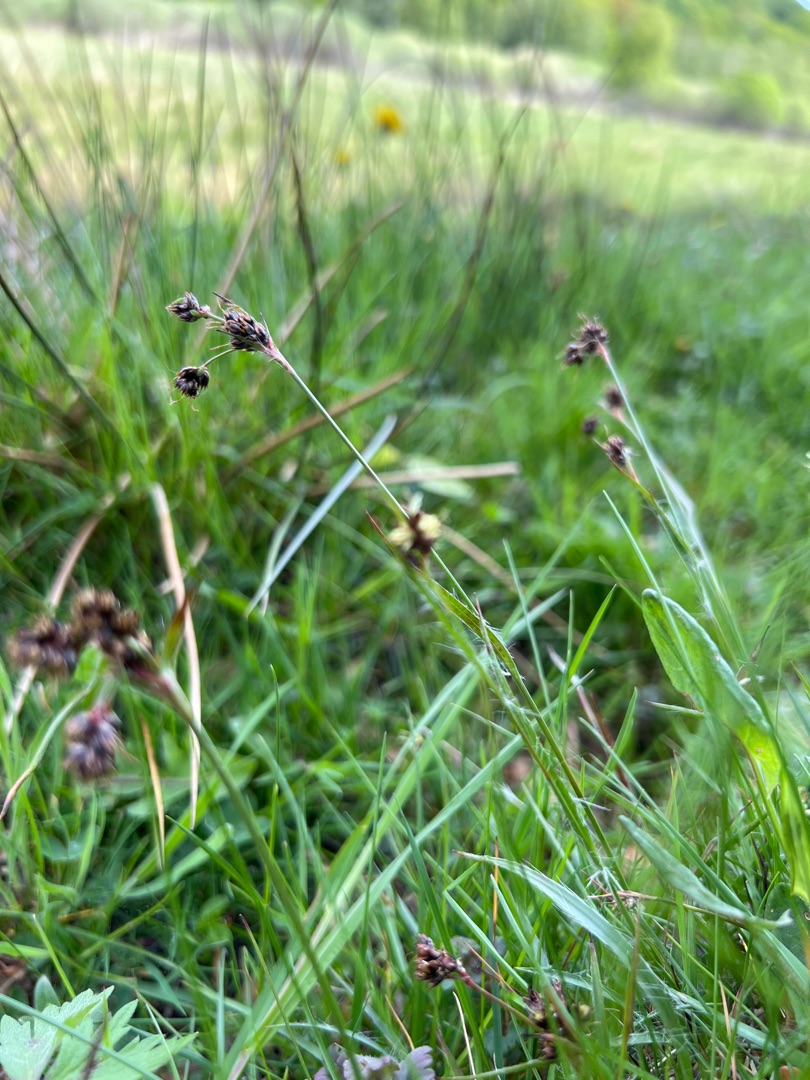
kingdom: Plantae
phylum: Tracheophyta
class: Liliopsida
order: Poales
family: Juncaceae
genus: Luzula
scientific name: Luzula campestris
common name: Mark-frytle
